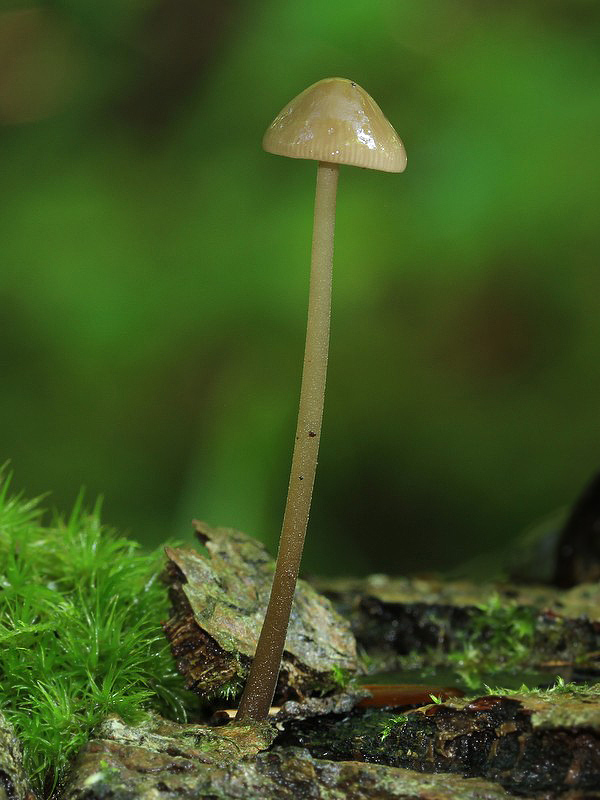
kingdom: Fungi
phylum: Basidiomycota
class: Agaricomycetes
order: Agaricales
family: Omphalotaceae
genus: Mycetinis
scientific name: Mycetinis alliaceus
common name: stor løghat
